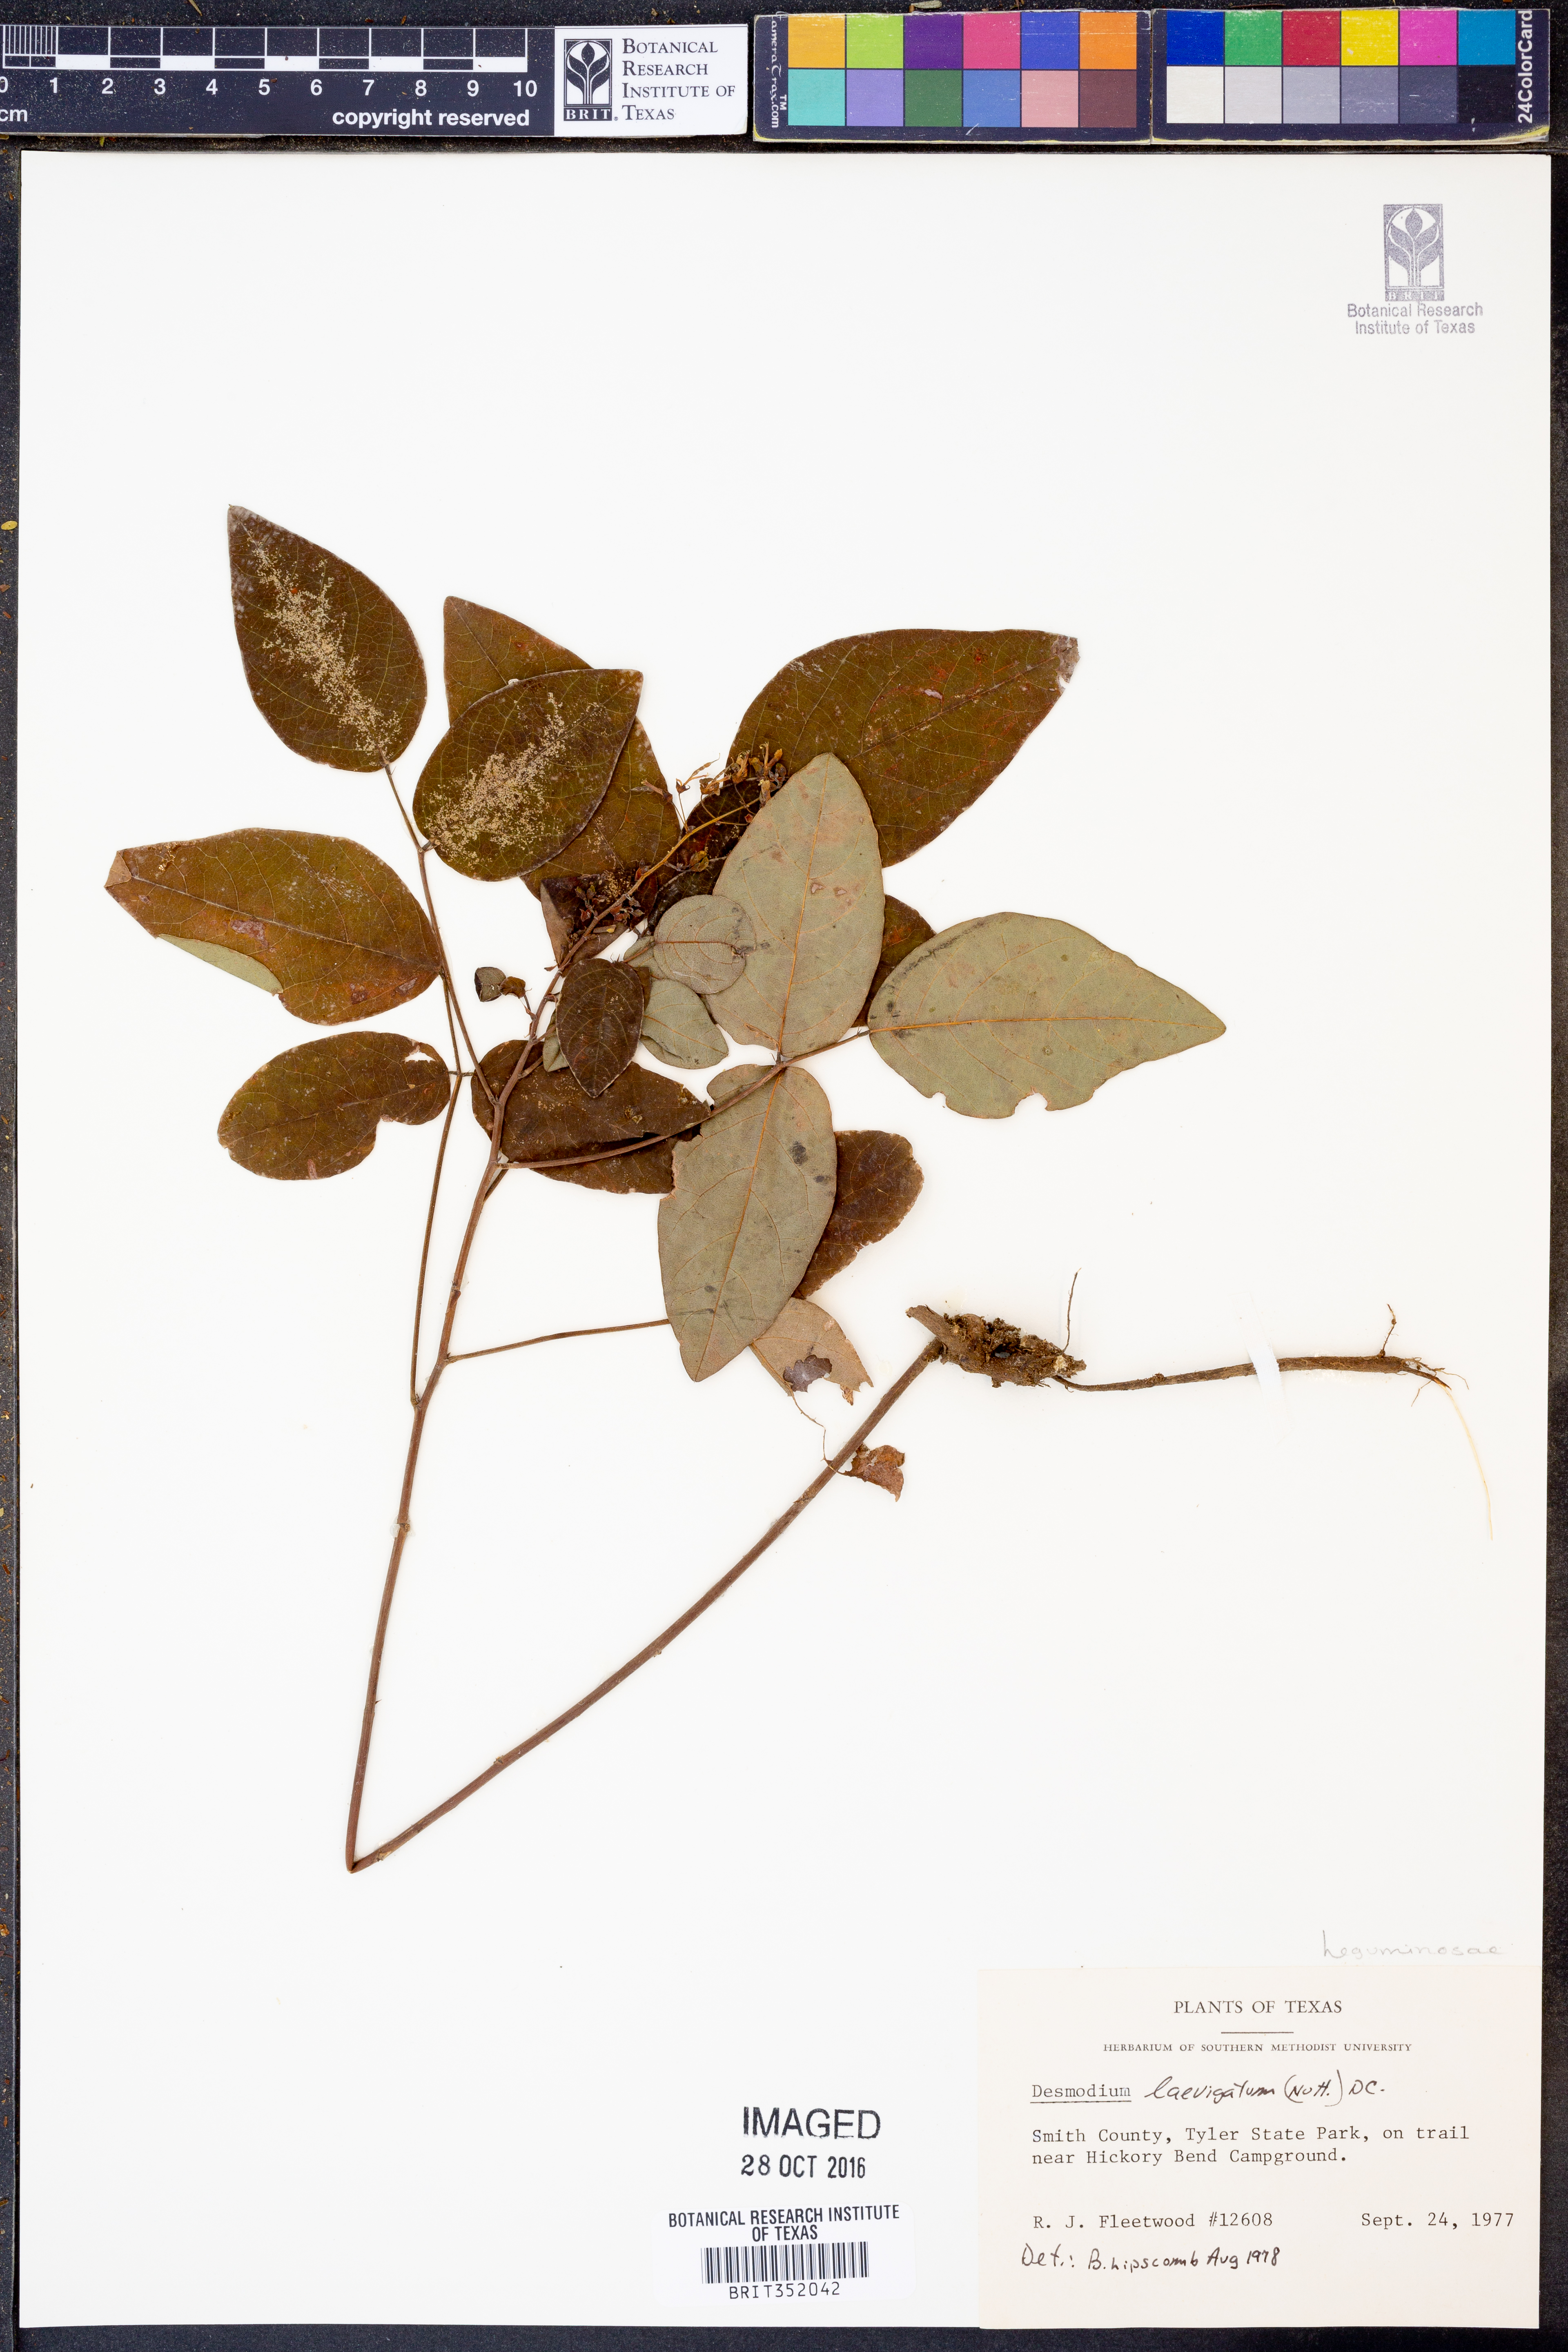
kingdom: Plantae
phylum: Tracheophyta
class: Magnoliopsida
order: Fabales
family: Fabaceae
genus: Desmodium
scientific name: Desmodium laevigatum
